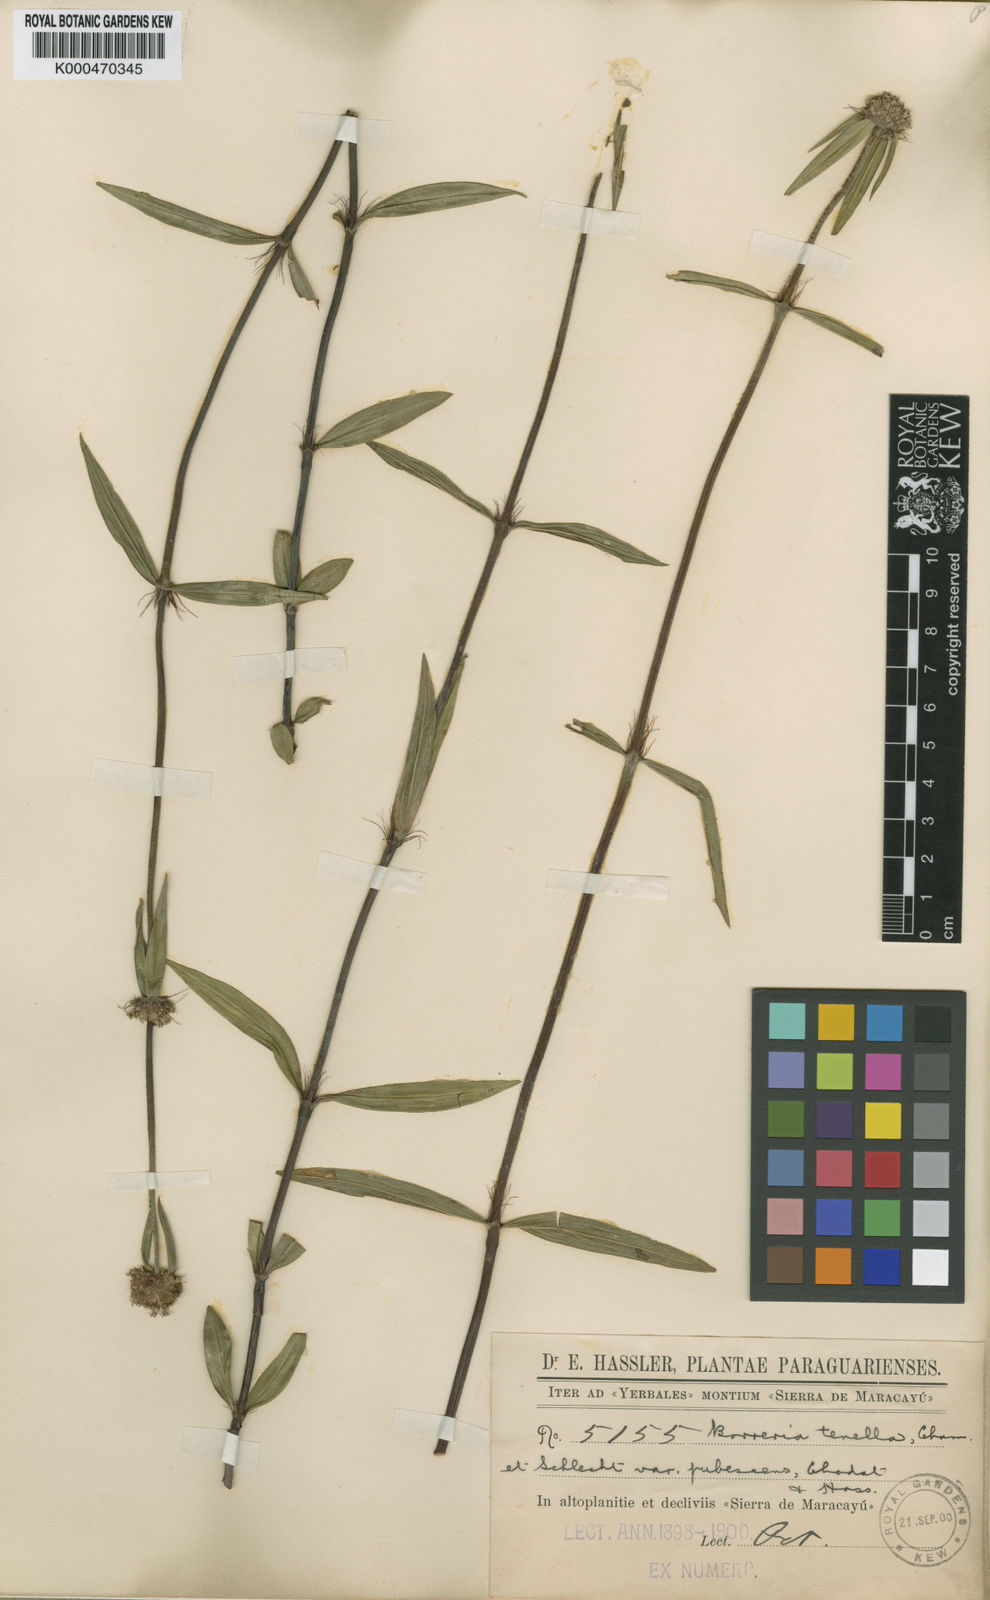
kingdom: Plantae
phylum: Tracheophyta
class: Magnoliopsida
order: Gentianales
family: Rubiaceae
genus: Spermacoce
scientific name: Spermacoce orinocensis
